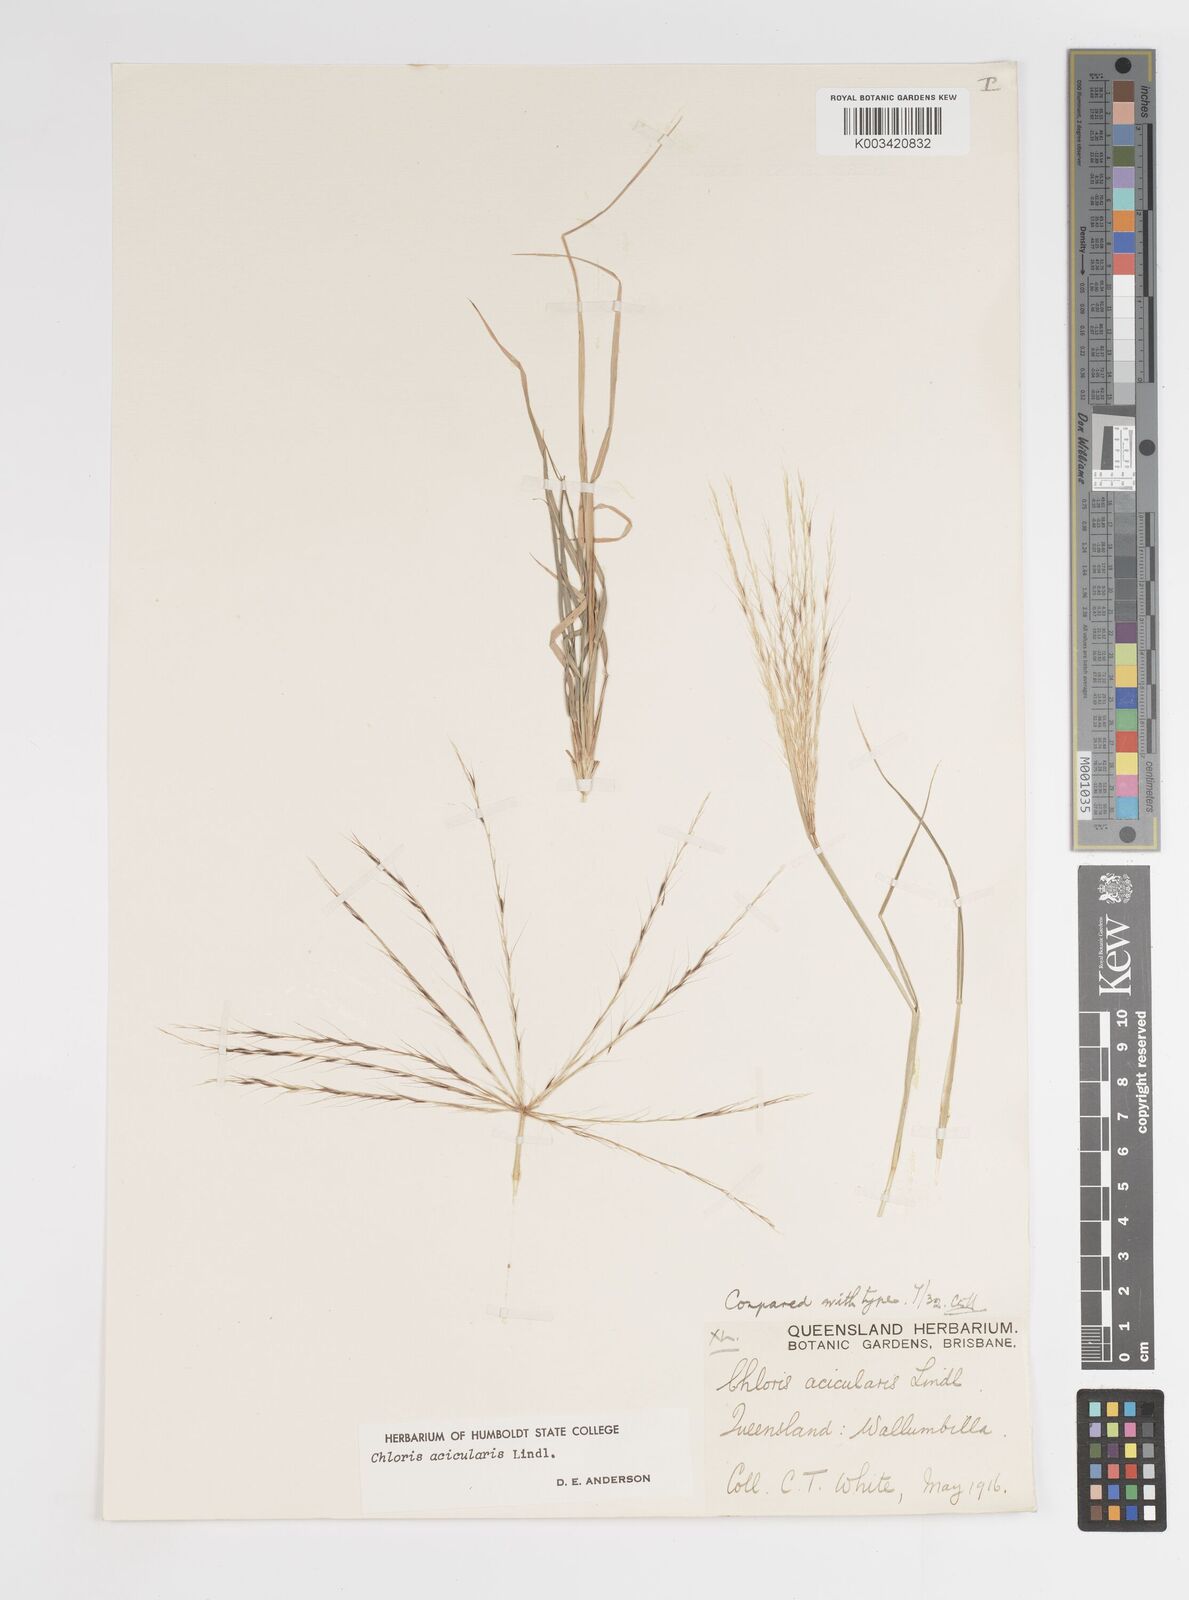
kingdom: Plantae
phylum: Tracheophyta
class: Liliopsida
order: Poales
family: Poaceae
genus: Enteropogon
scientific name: Enteropogon acicularis
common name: Curly windmill grass
